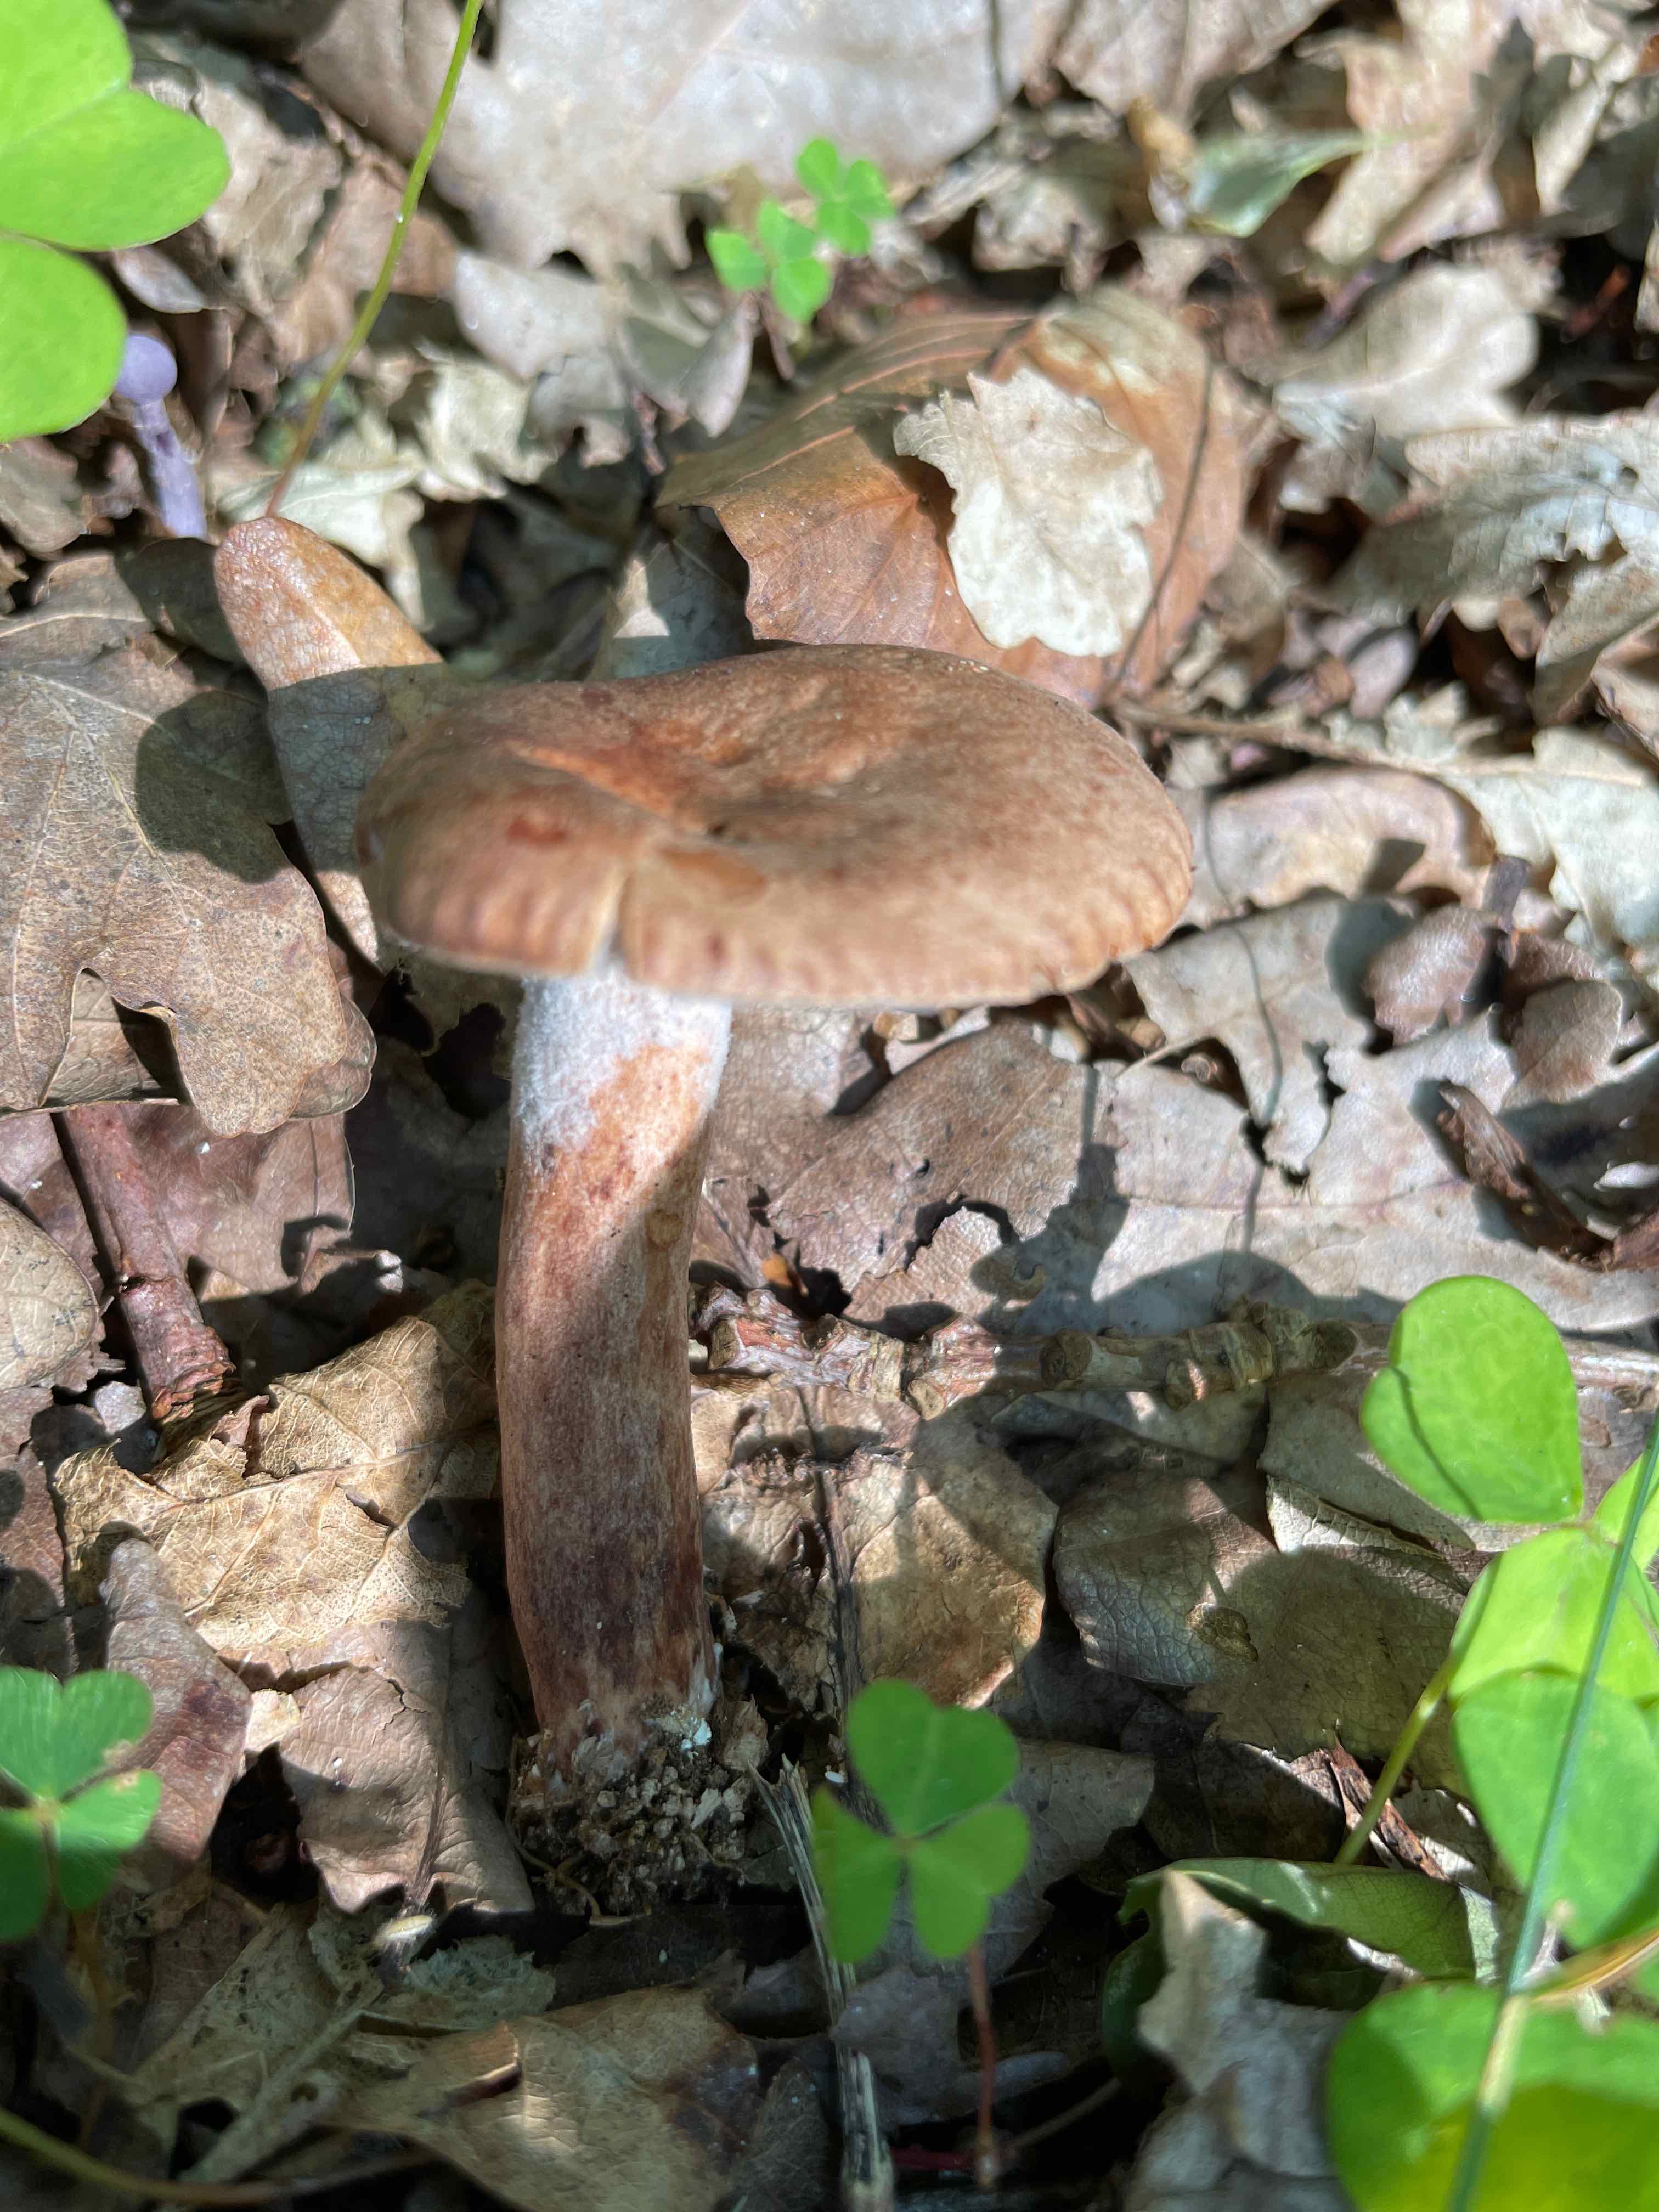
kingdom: Fungi
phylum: Basidiomycota
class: Agaricomycetes
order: Russulales
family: Russulaceae
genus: Lactarius
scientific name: Lactarius quietus
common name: ege-mælkehat
